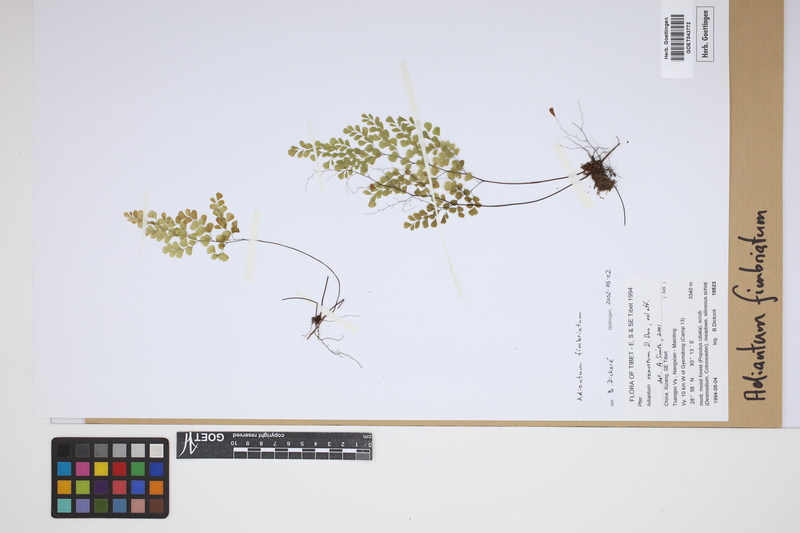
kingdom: Plantae
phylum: Tracheophyta
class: Polypodiopsida
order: Polypodiales
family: Pteridaceae
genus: Adiantum
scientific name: Adiantum venustum
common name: Evergreen maidenhair
